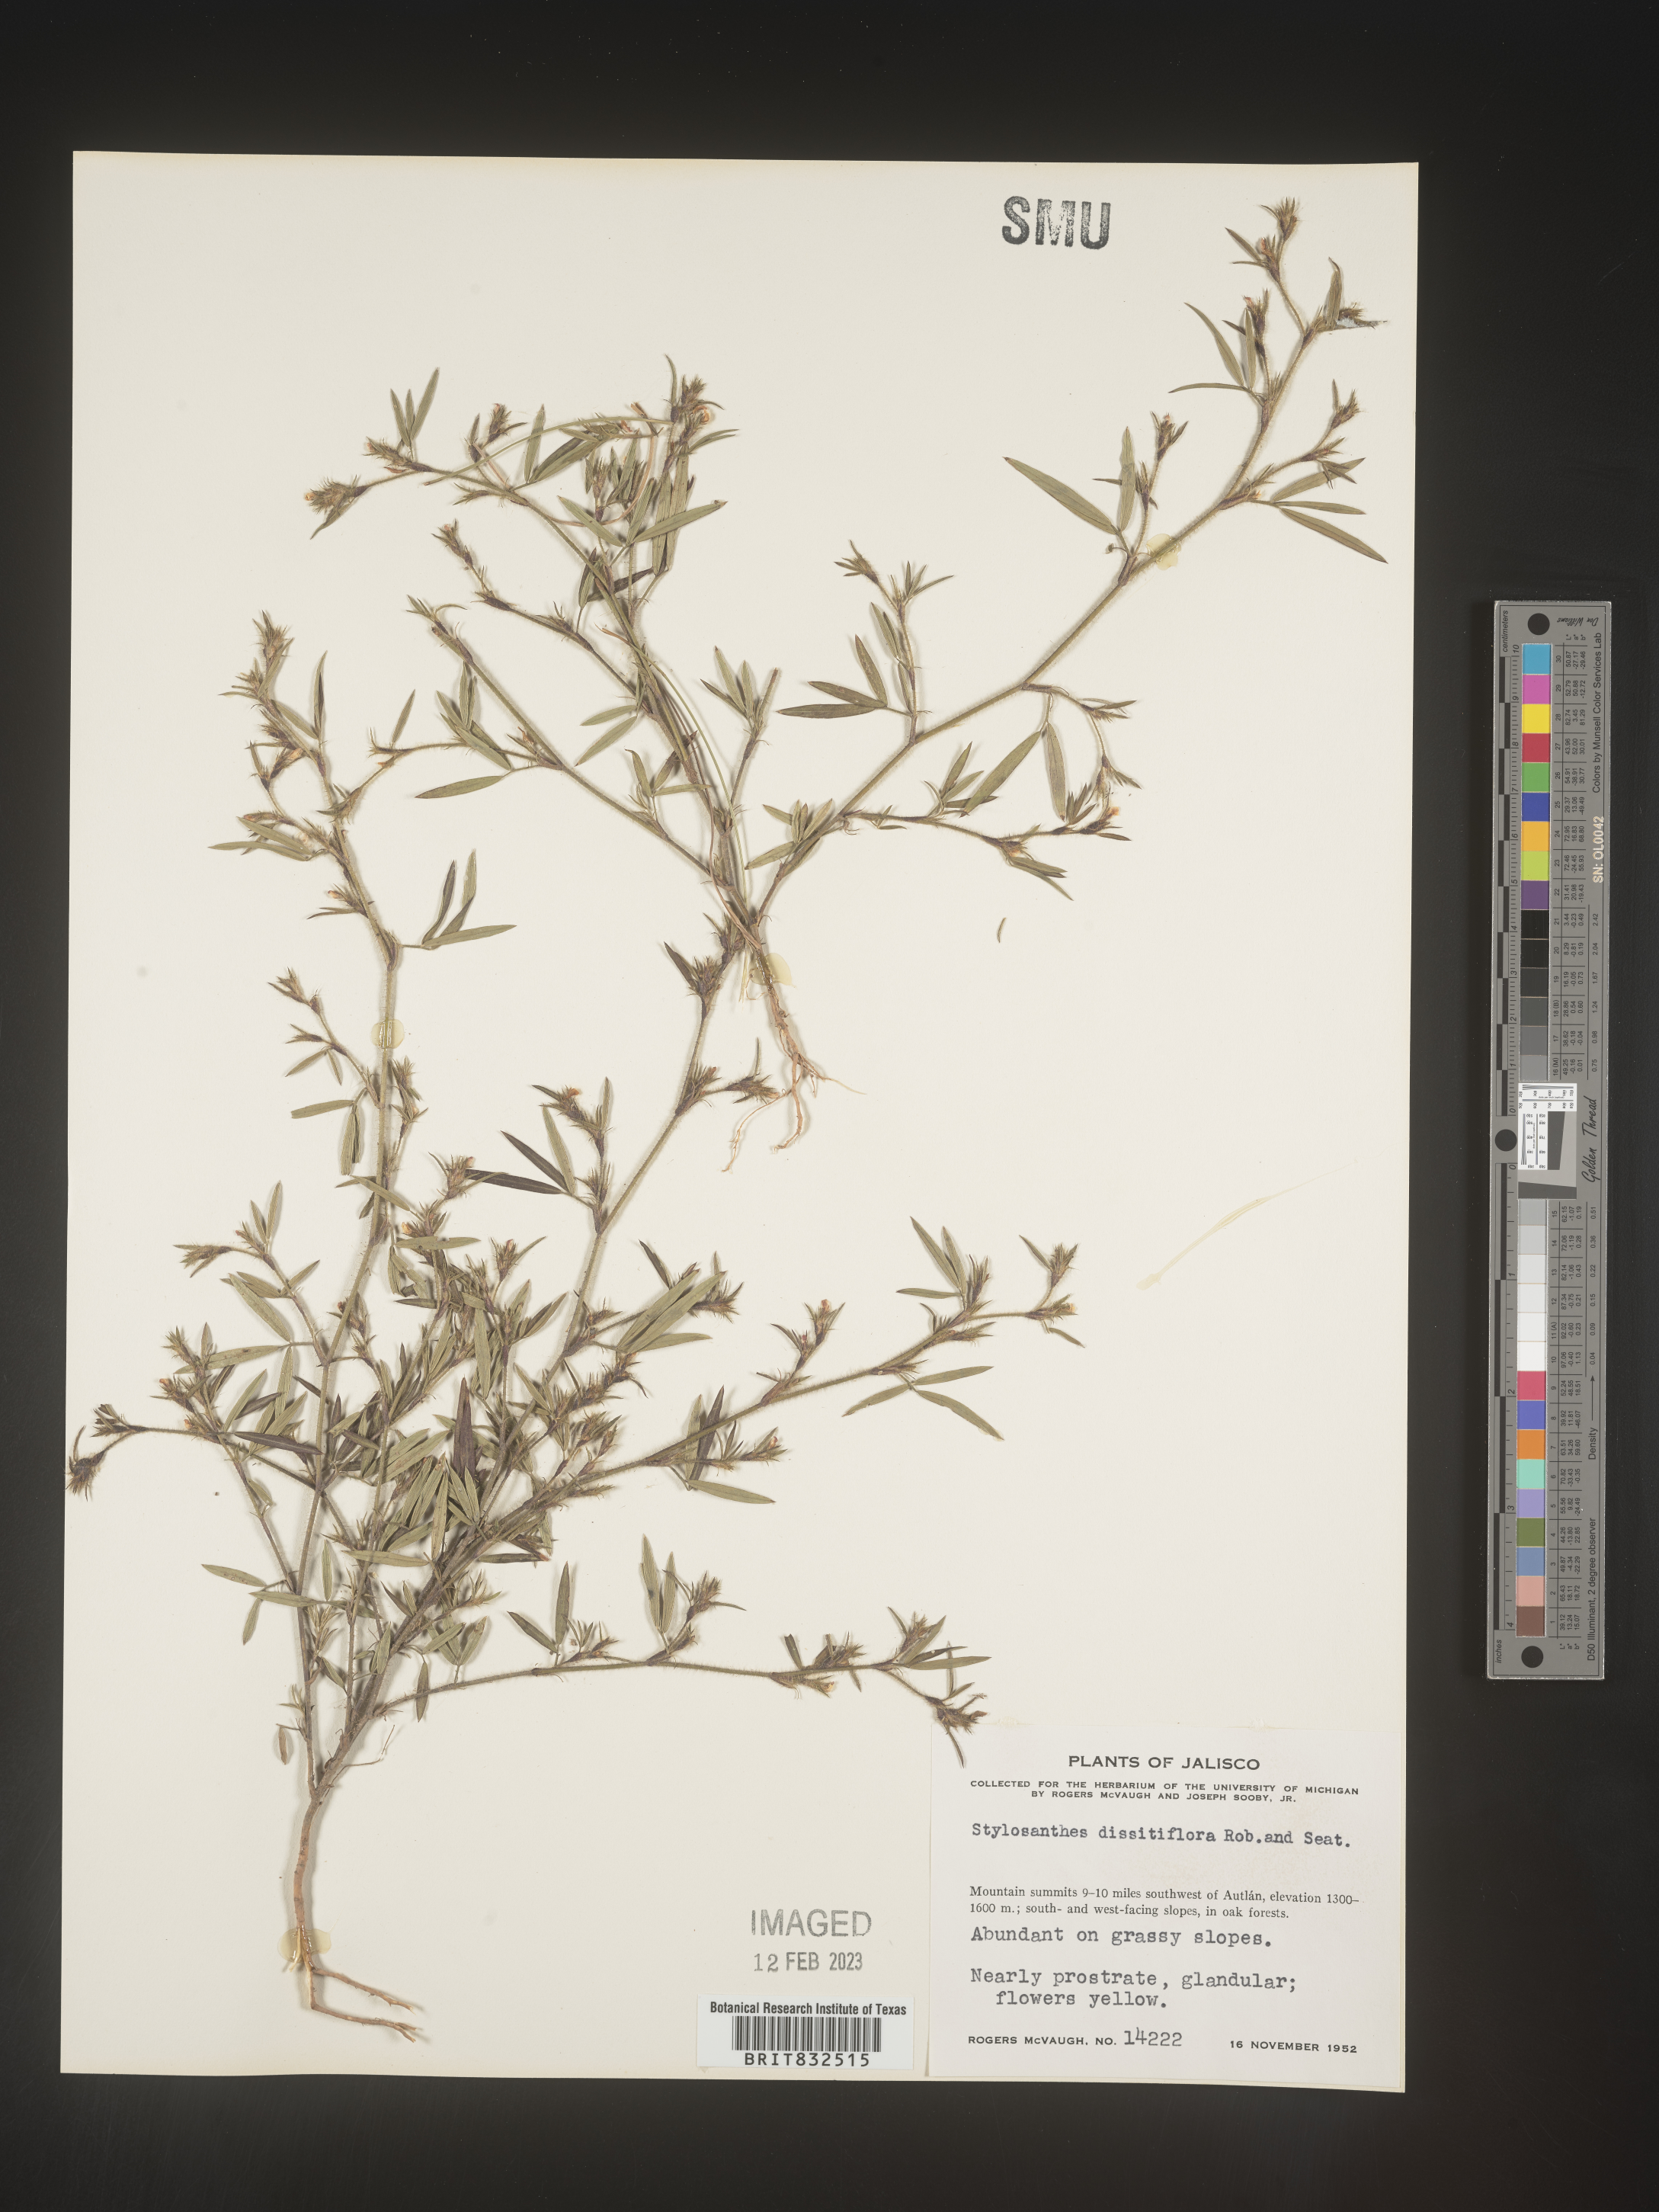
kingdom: Plantae
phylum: Tracheophyta
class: Magnoliopsida
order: Fabales
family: Fabaceae
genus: Stylosanthes
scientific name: Stylosanthes
